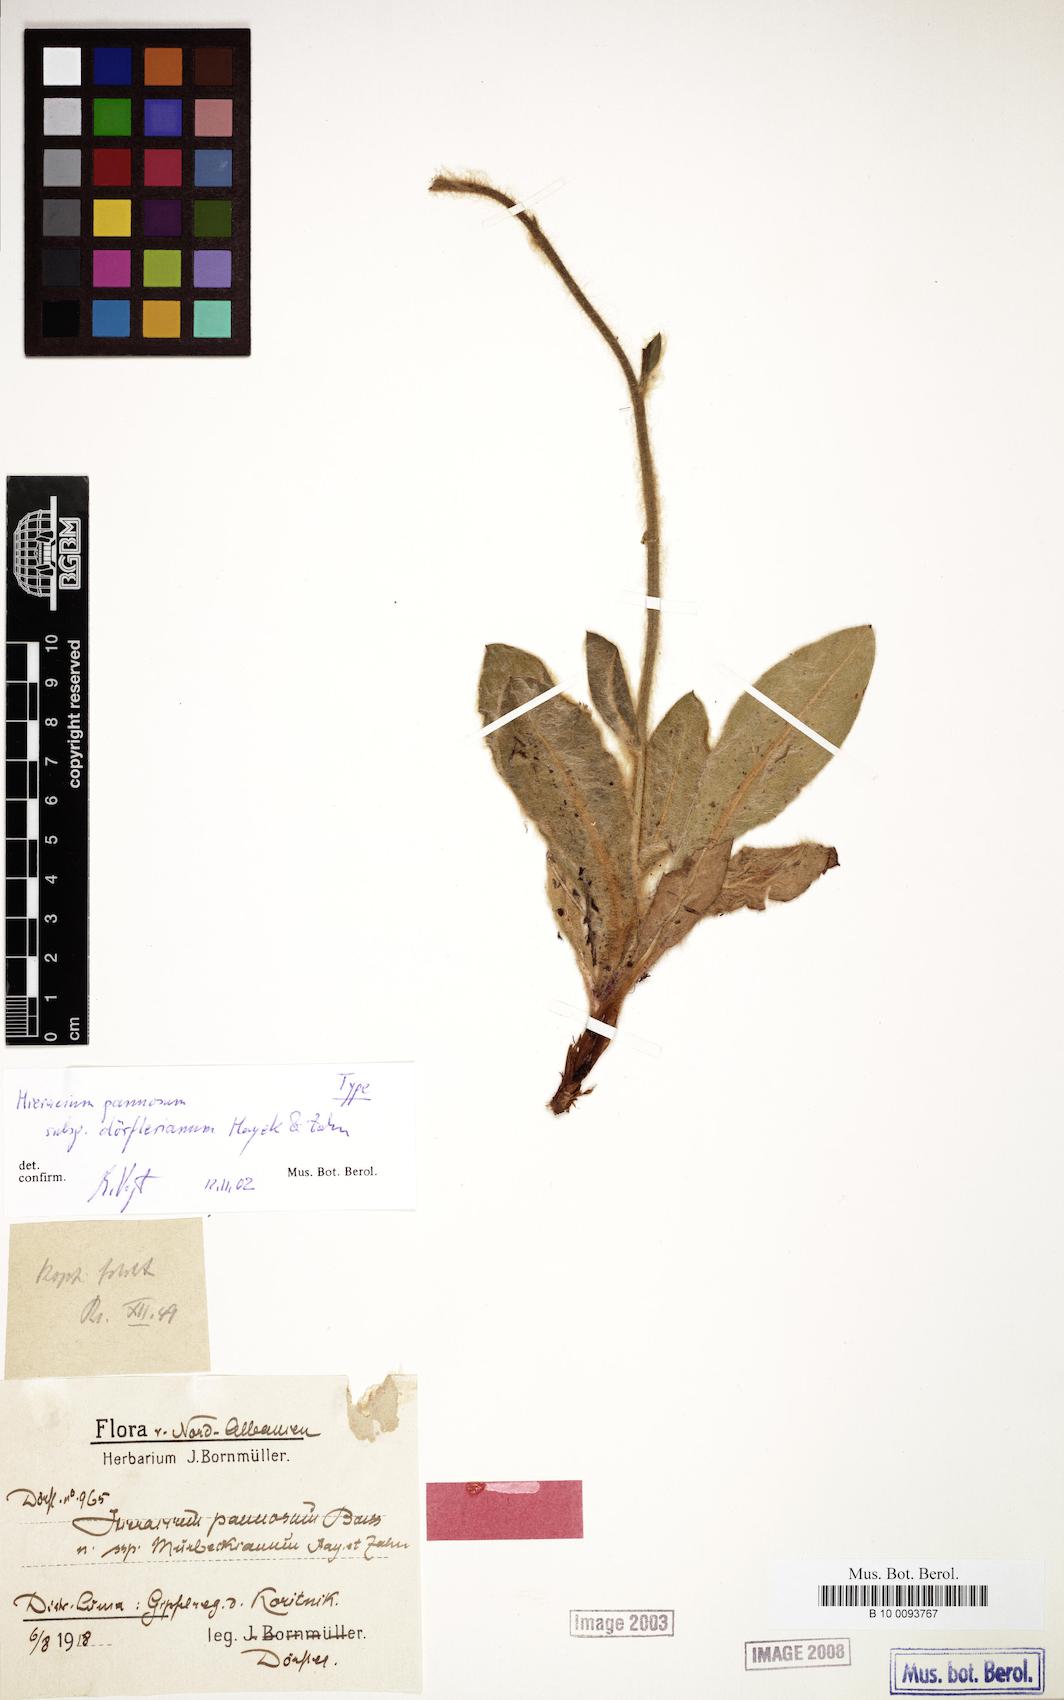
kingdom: Plantae
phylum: Tracheophyta
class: Magnoliopsida
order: Asterales
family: Asteraceae
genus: Hieracium
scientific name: Hieracium pannosum
